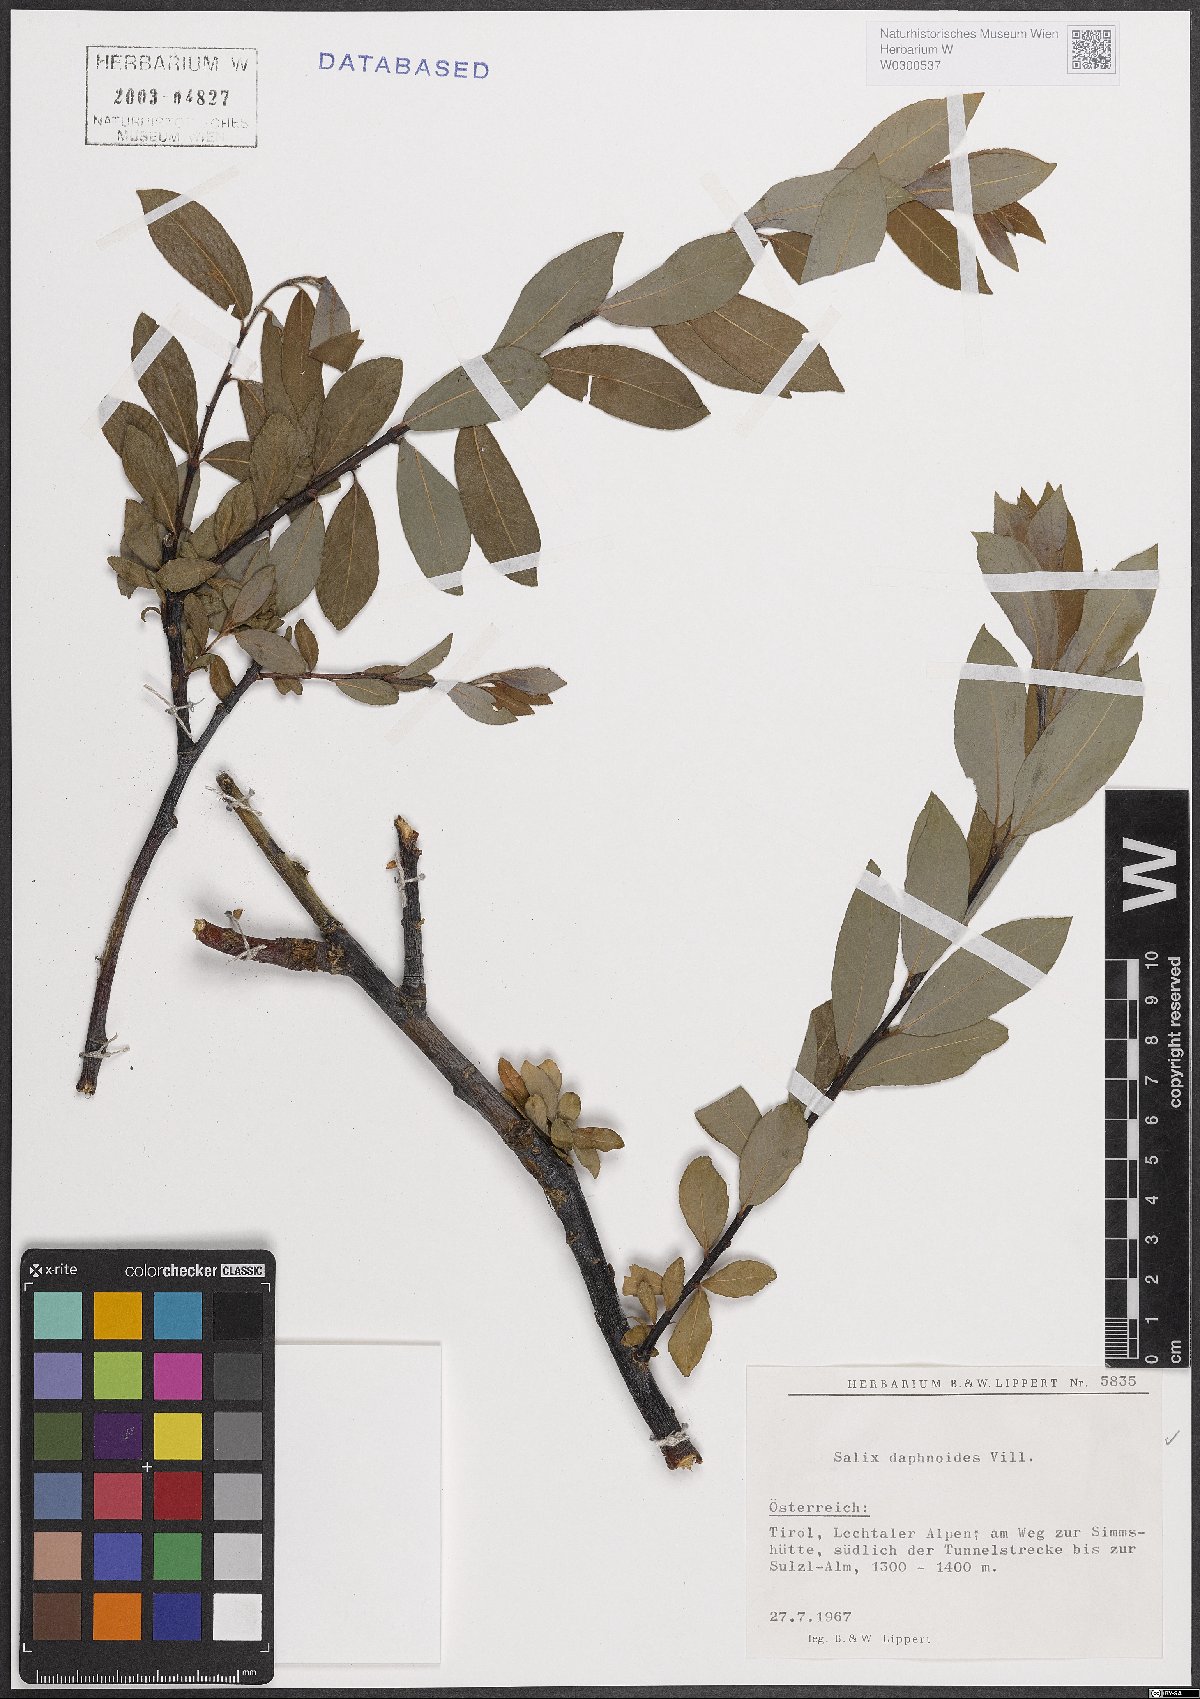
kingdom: Plantae
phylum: Tracheophyta
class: Magnoliopsida
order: Malpighiales
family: Salicaceae
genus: Salix
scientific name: Salix daphnoides
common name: European violet-willow
